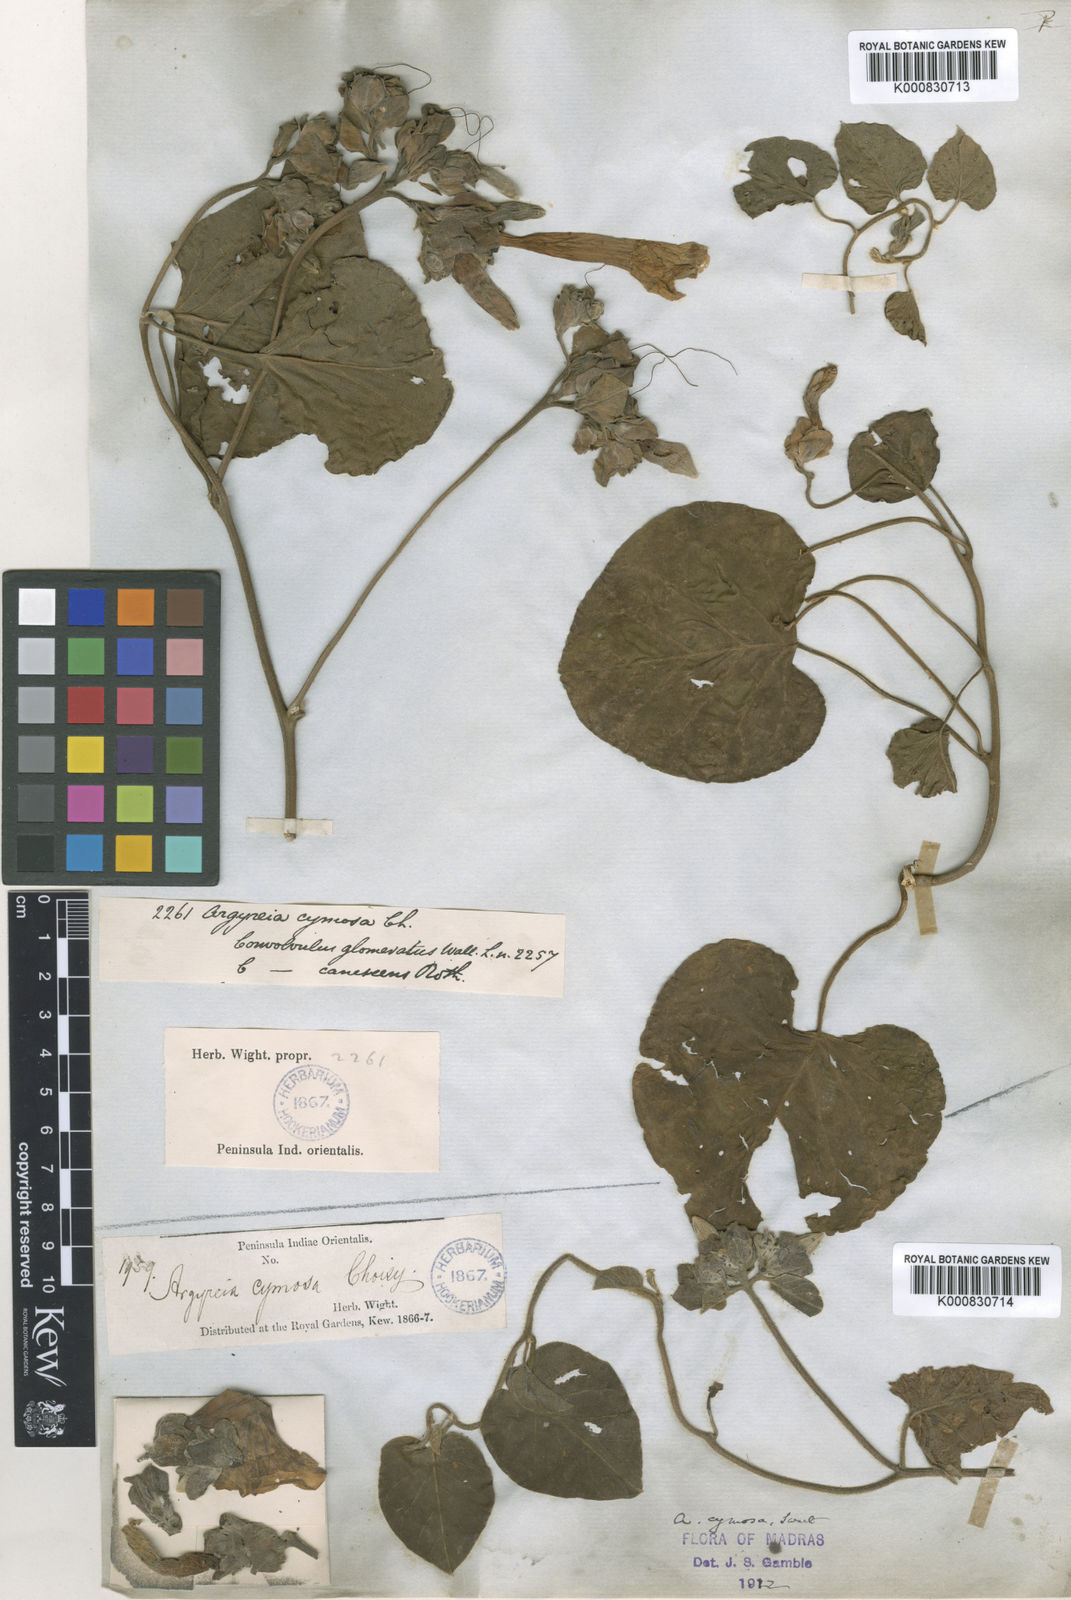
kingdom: Plantae
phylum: Tracheophyta
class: Magnoliopsida
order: Solanales
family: Convolvulaceae
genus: Argyreia
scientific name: Argyreia
